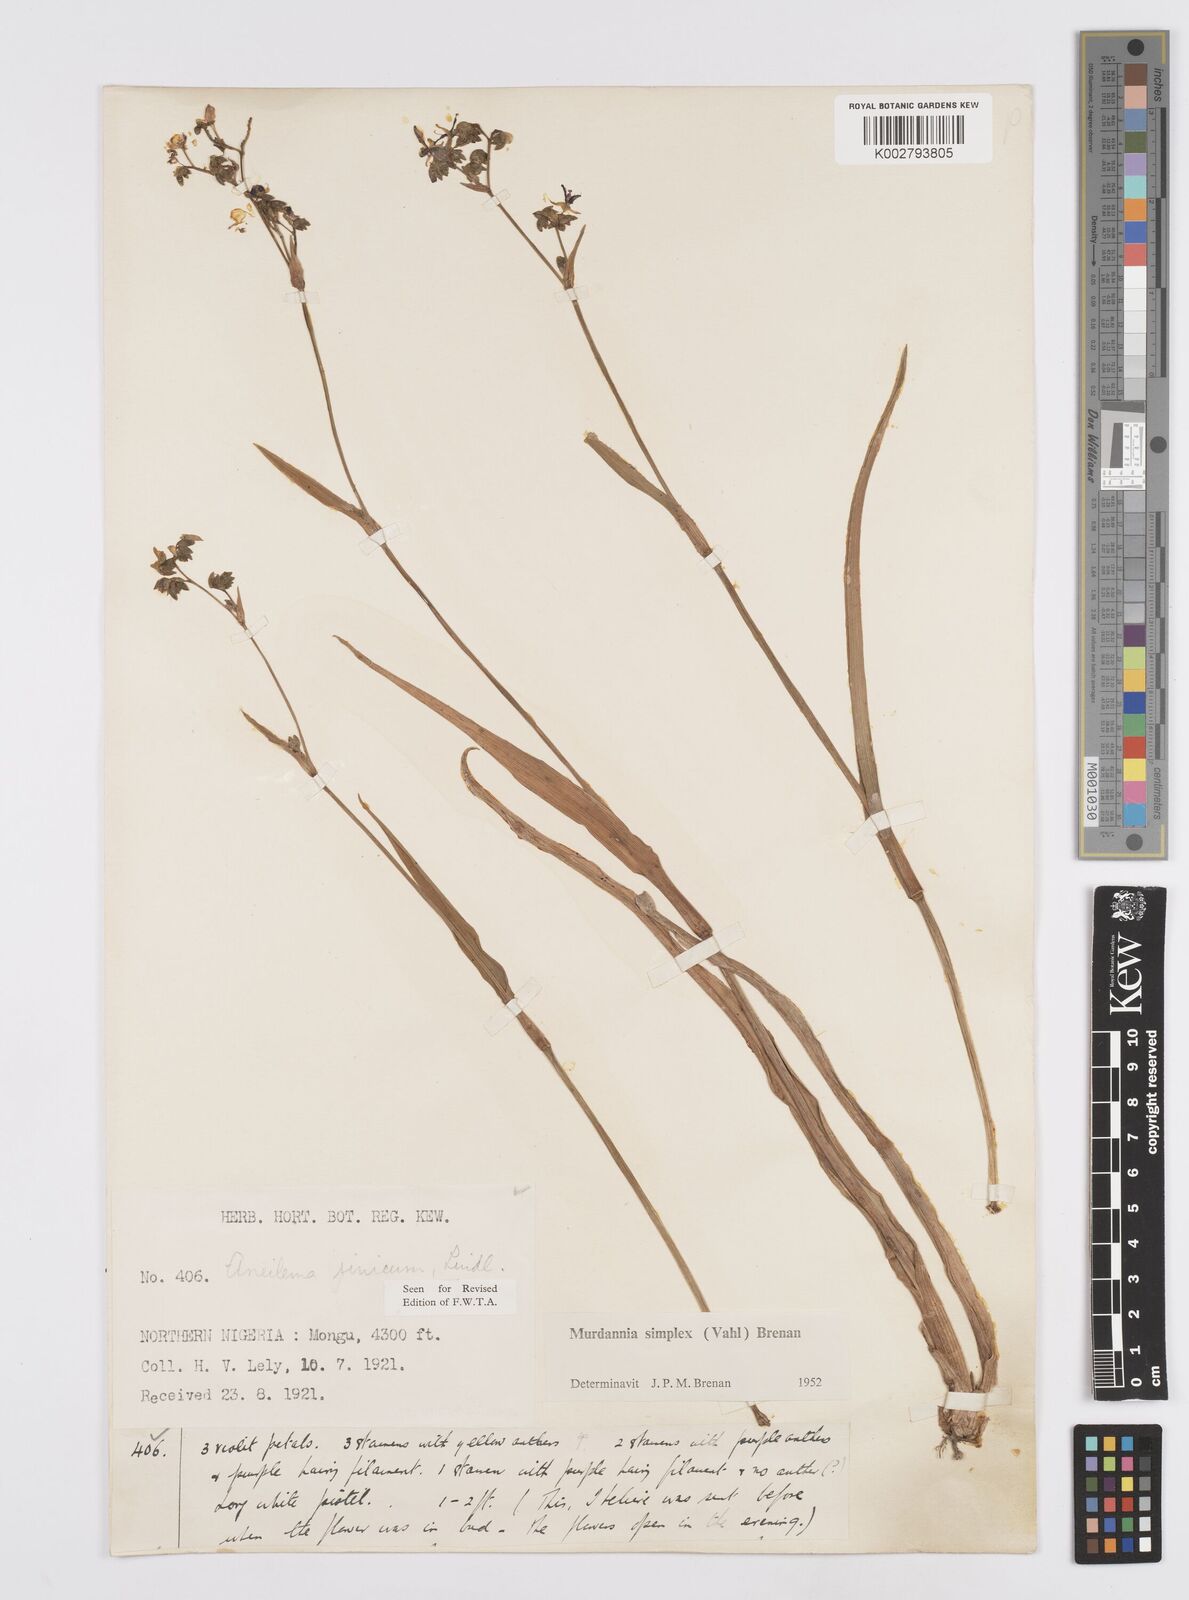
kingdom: Plantae
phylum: Tracheophyta
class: Liliopsida
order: Commelinales
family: Commelinaceae
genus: Murdannia
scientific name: Murdannia simplex
